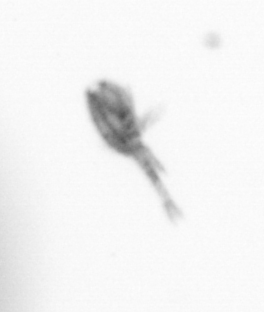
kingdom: Animalia
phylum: Arthropoda
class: Copepoda
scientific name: Copepoda
